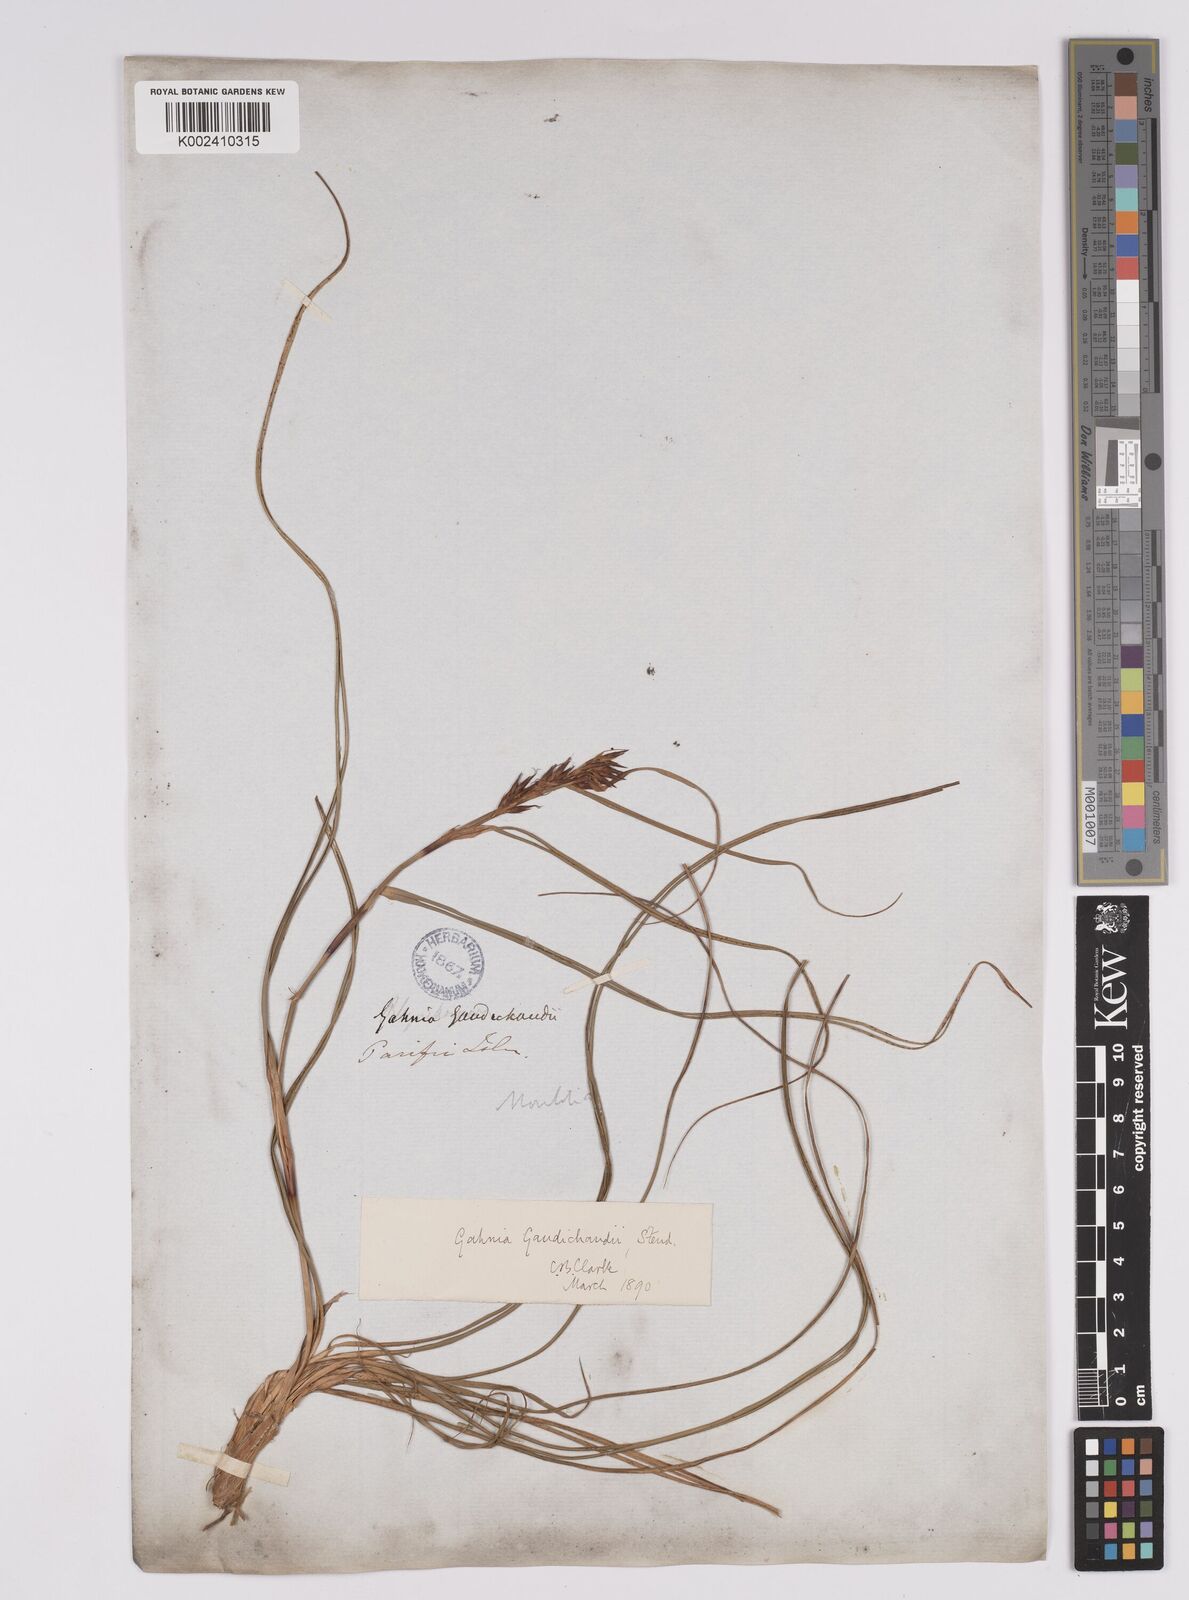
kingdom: Plantae
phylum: Tracheophyta
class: Liliopsida
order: Poales
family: Cyperaceae
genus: Morelotia
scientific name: Morelotia gahniiformis
